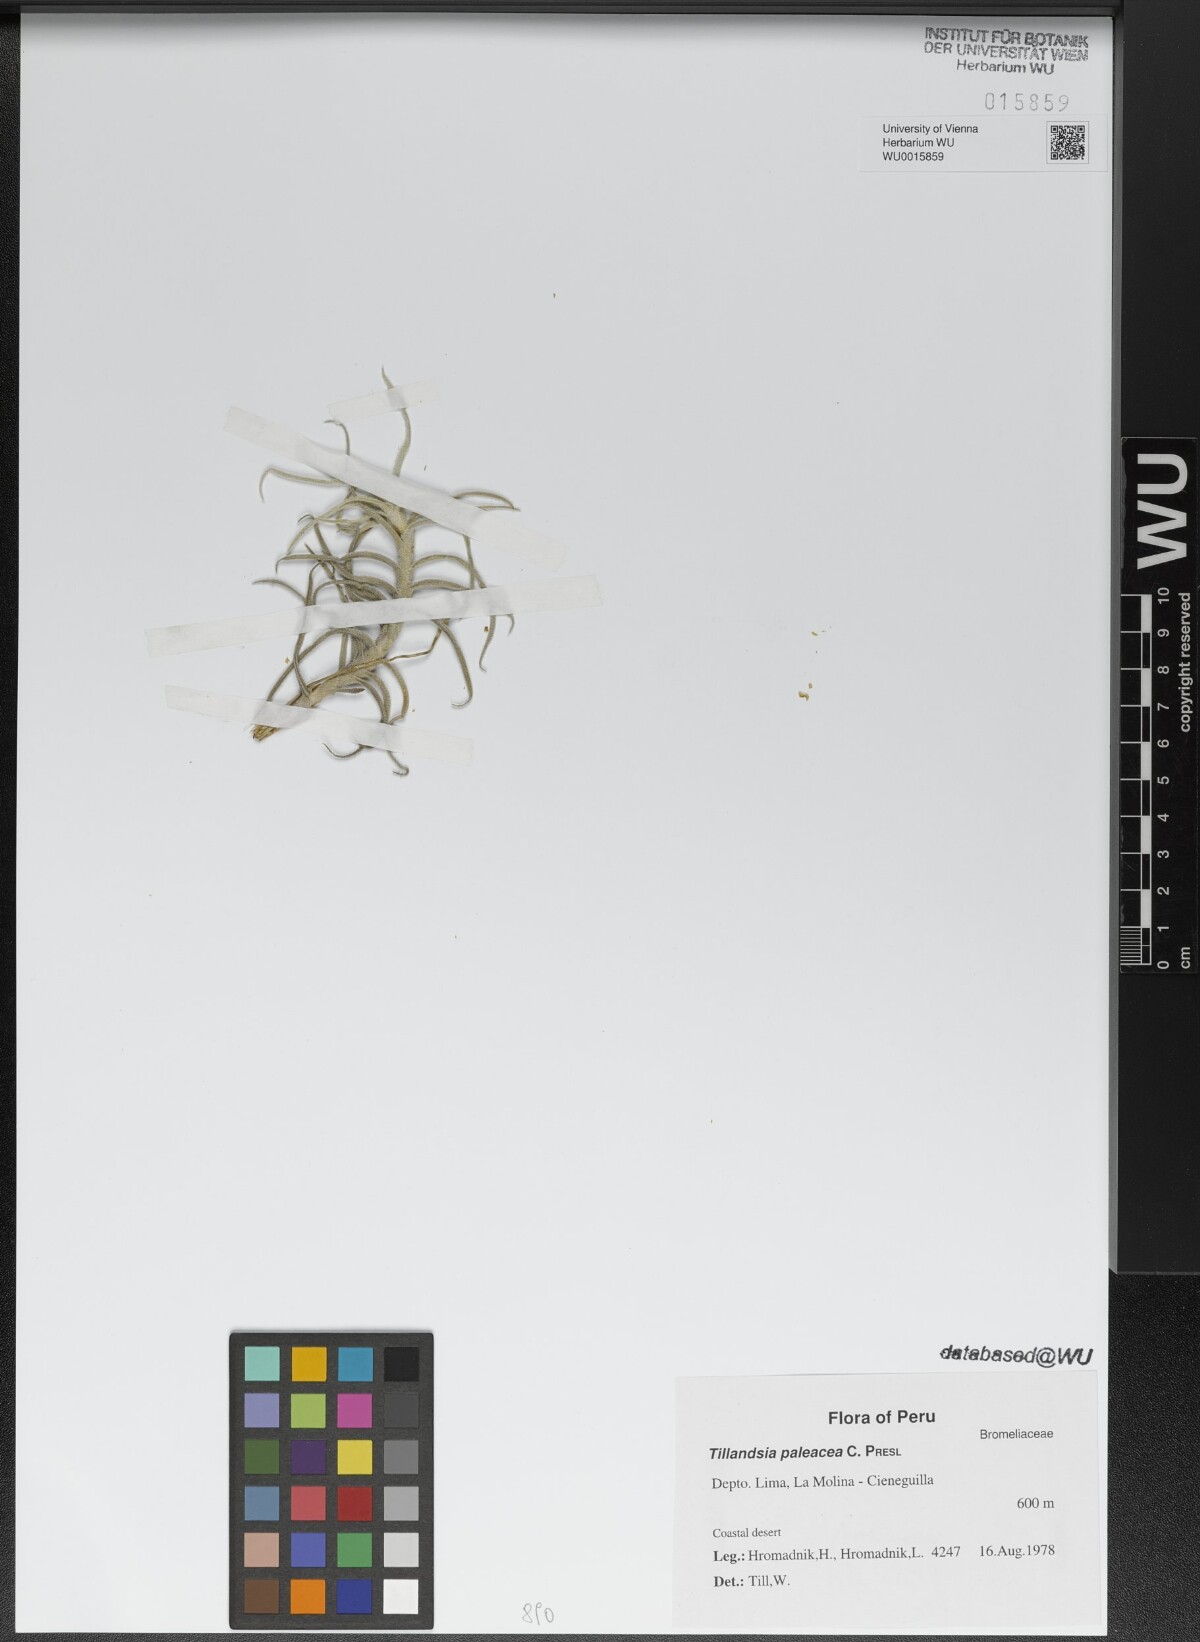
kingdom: Plantae
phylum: Tracheophyta
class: Liliopsida
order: Poales
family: Bromeliaceae
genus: Tillandsia
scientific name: Tillandsia paleacea
